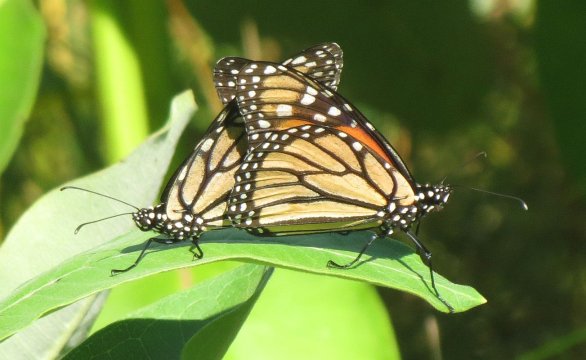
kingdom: Animalia
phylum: Arthropoda
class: Insecta
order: Lepidoptera
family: Nymphalidae
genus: Danaus
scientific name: Danaus plexippus
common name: Monarch
